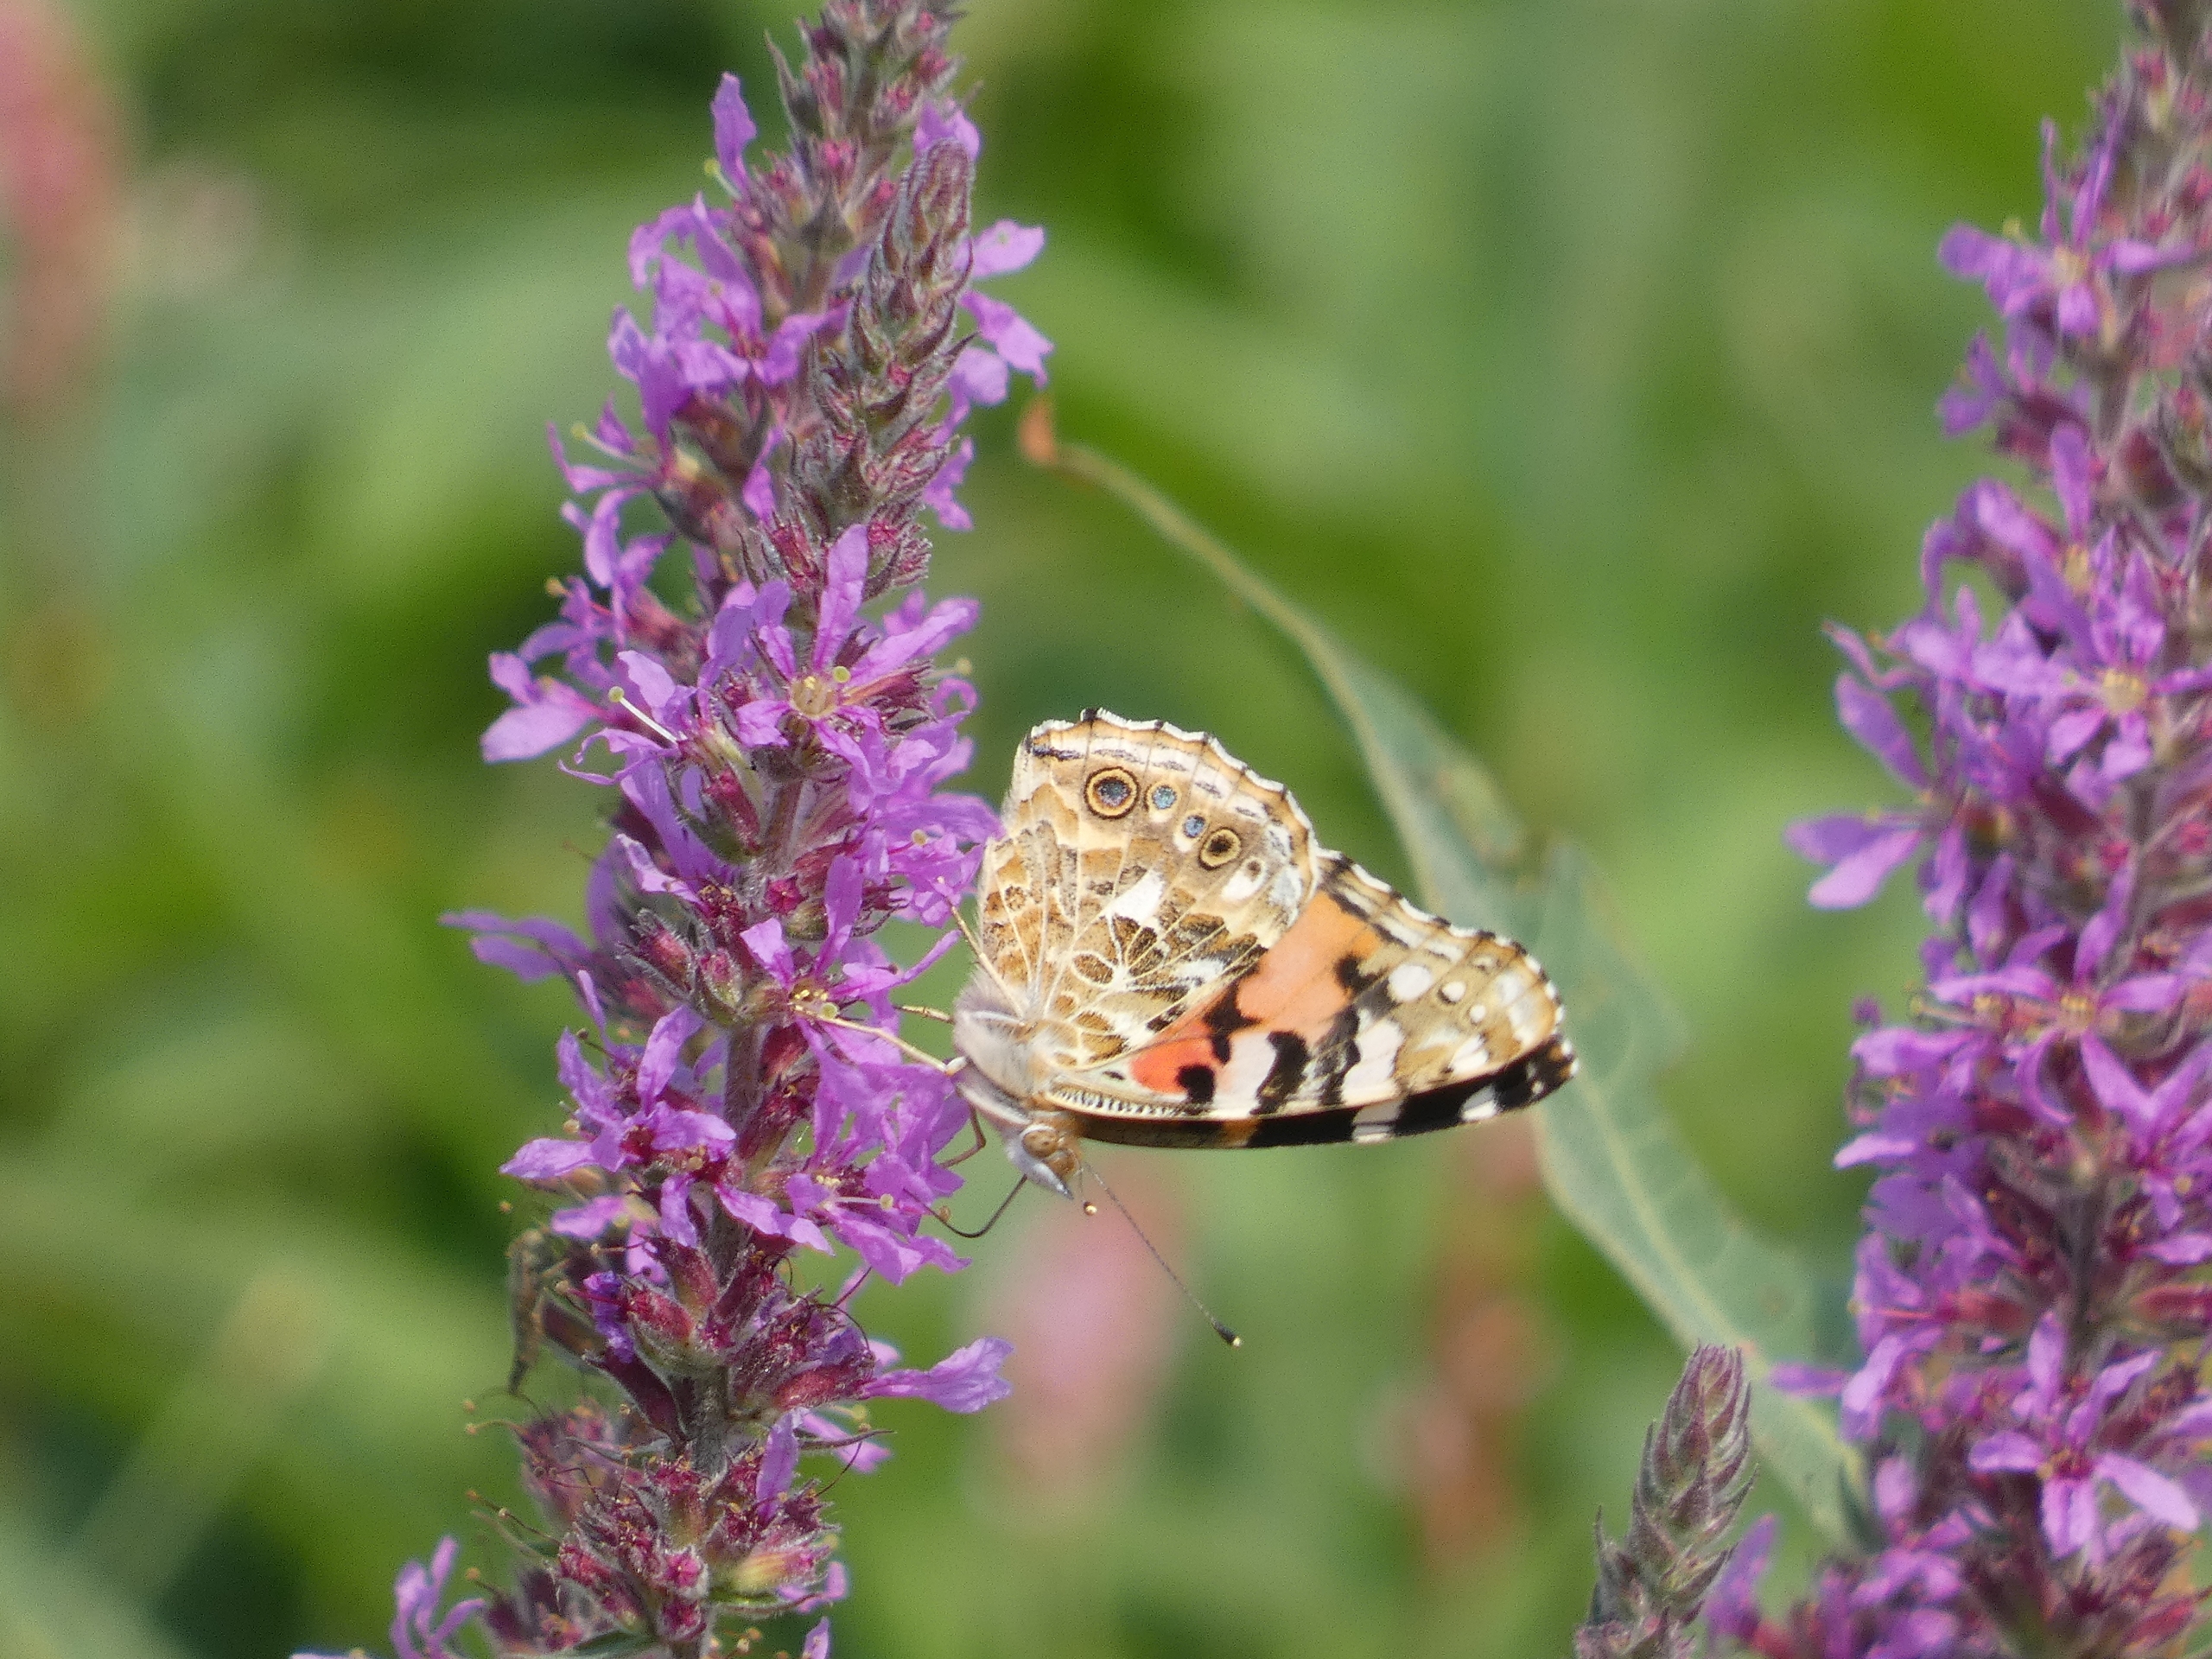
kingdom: Animalia
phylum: Arthropoda
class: Insecta
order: Lepidoptera
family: Nymphalidae
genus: Vanessa
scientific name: Vanessa cardui
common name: Tidselsommerfugl
